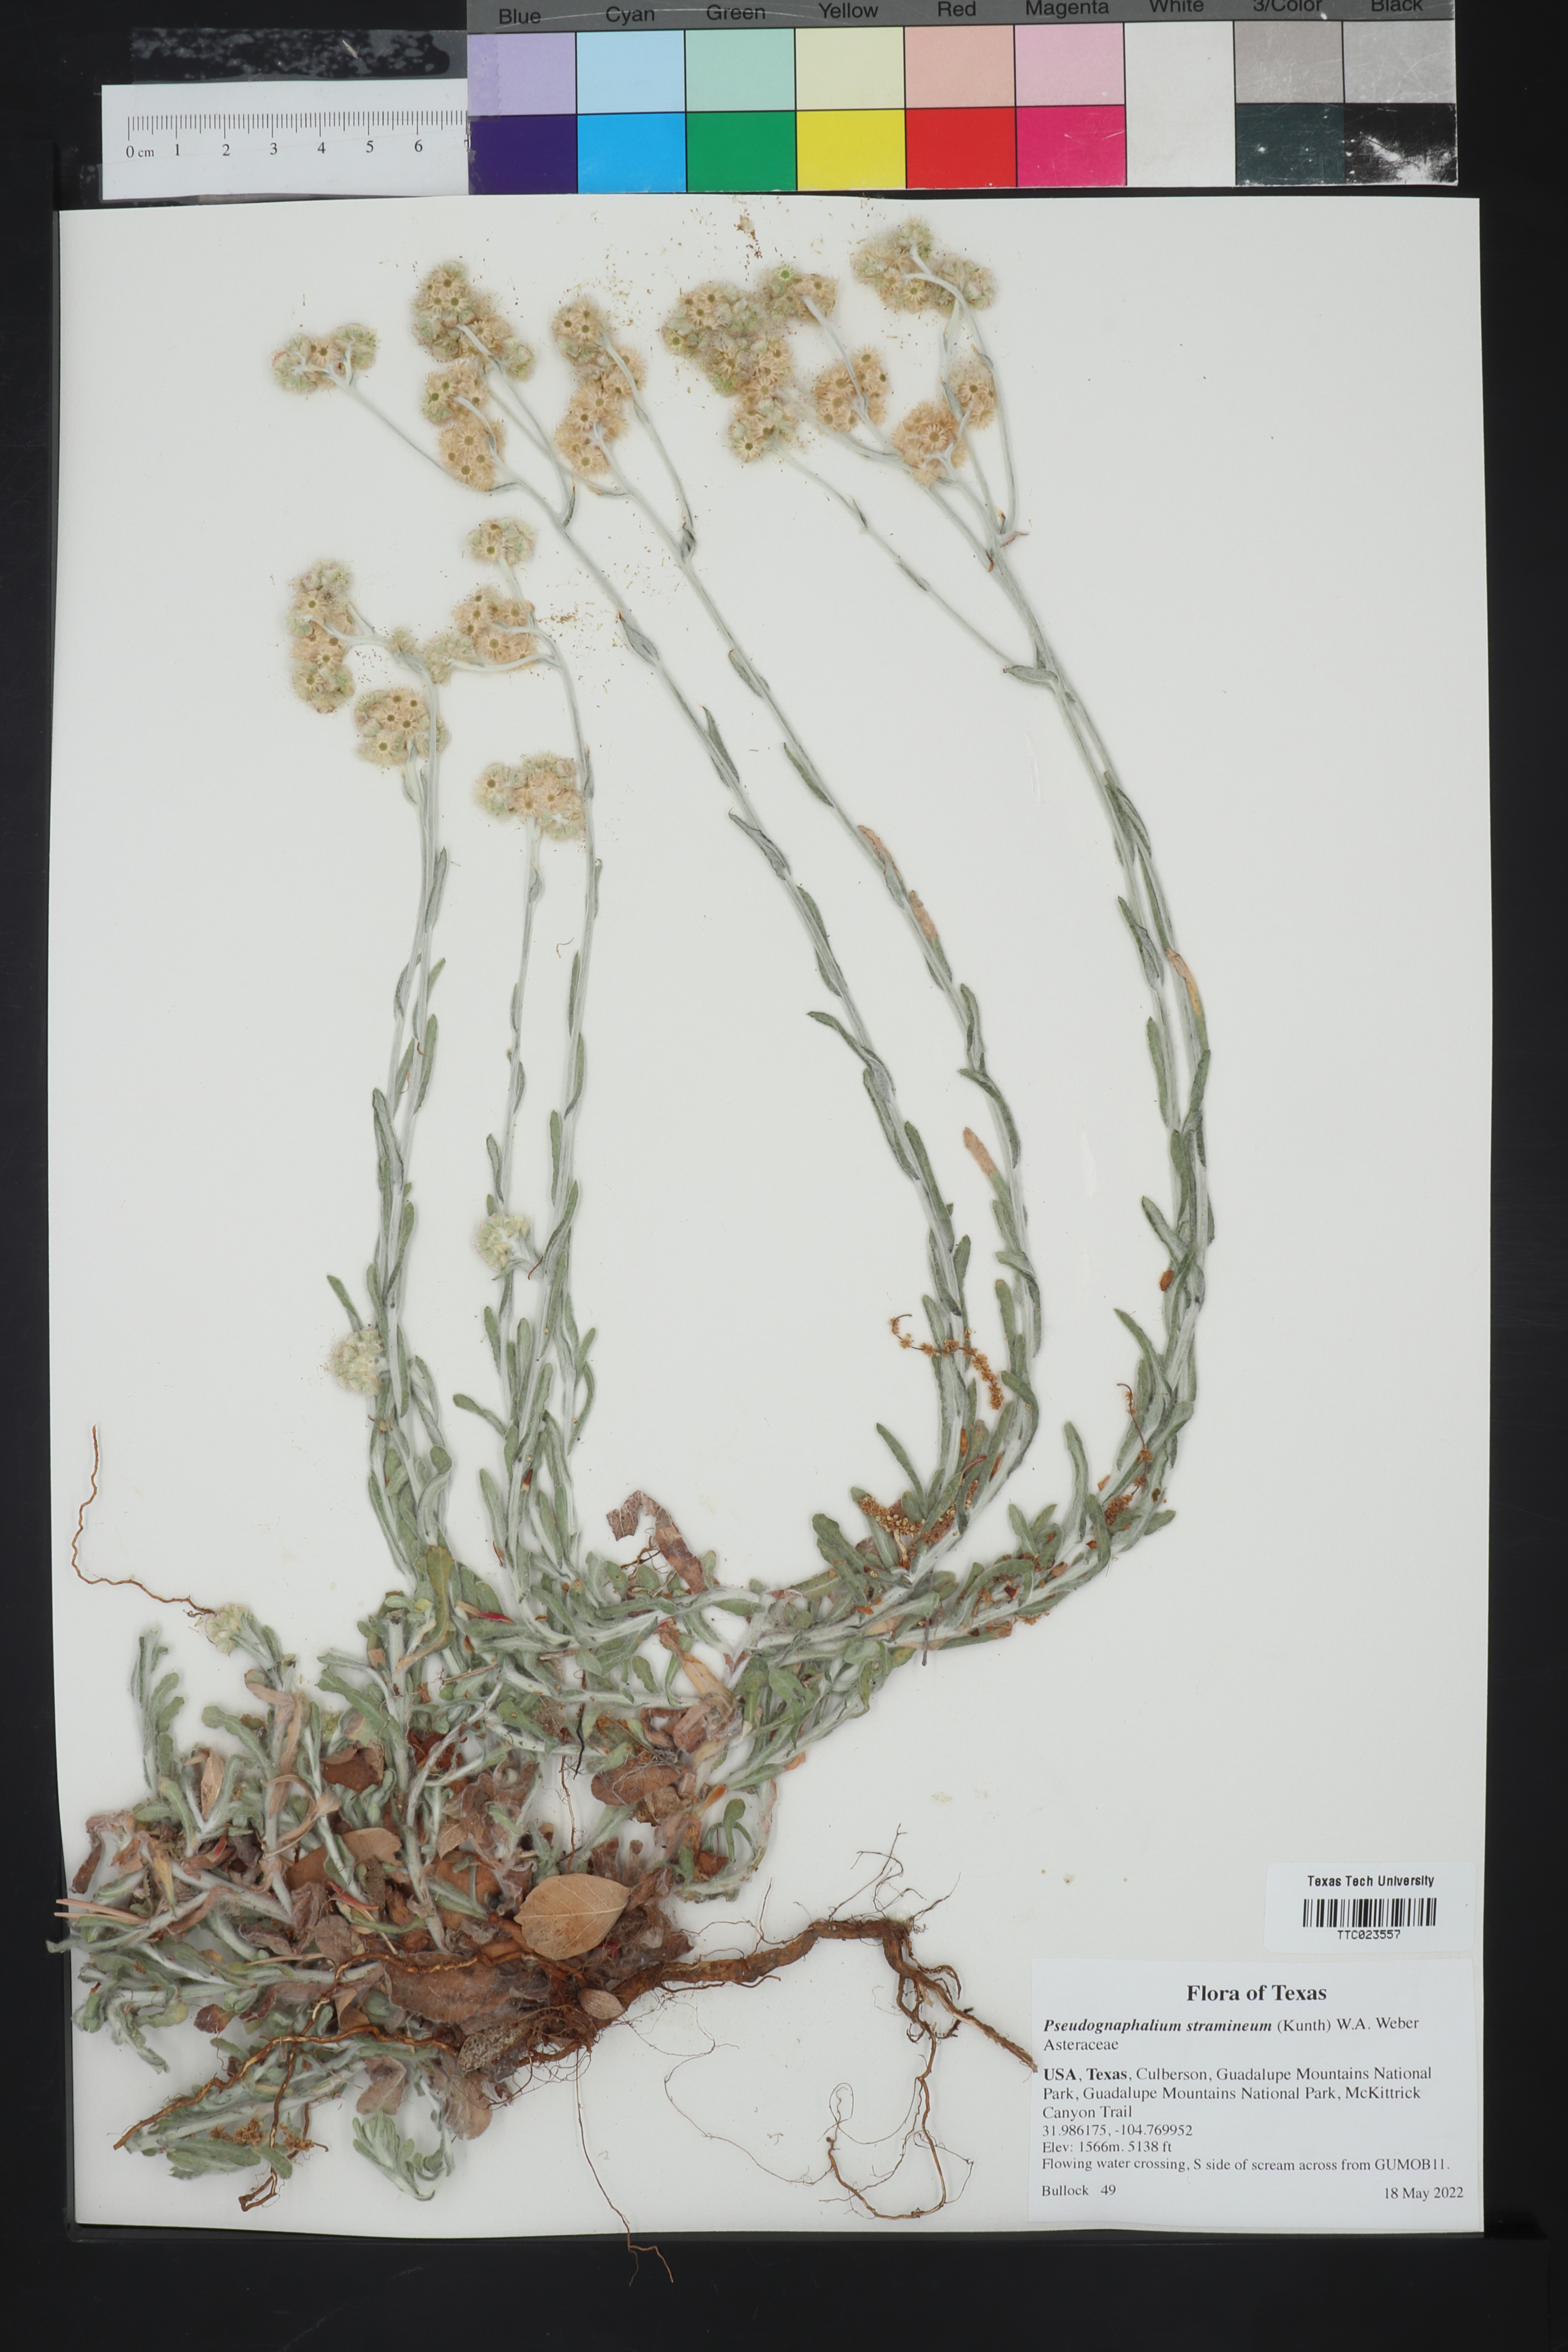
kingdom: Plantae
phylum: Tracheophyta
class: Magnoliopsida
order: Asterales
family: Asteraceae
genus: Pseudognaphalium
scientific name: Pseudognaphalium stramineum
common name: Cotton-batting-plant
